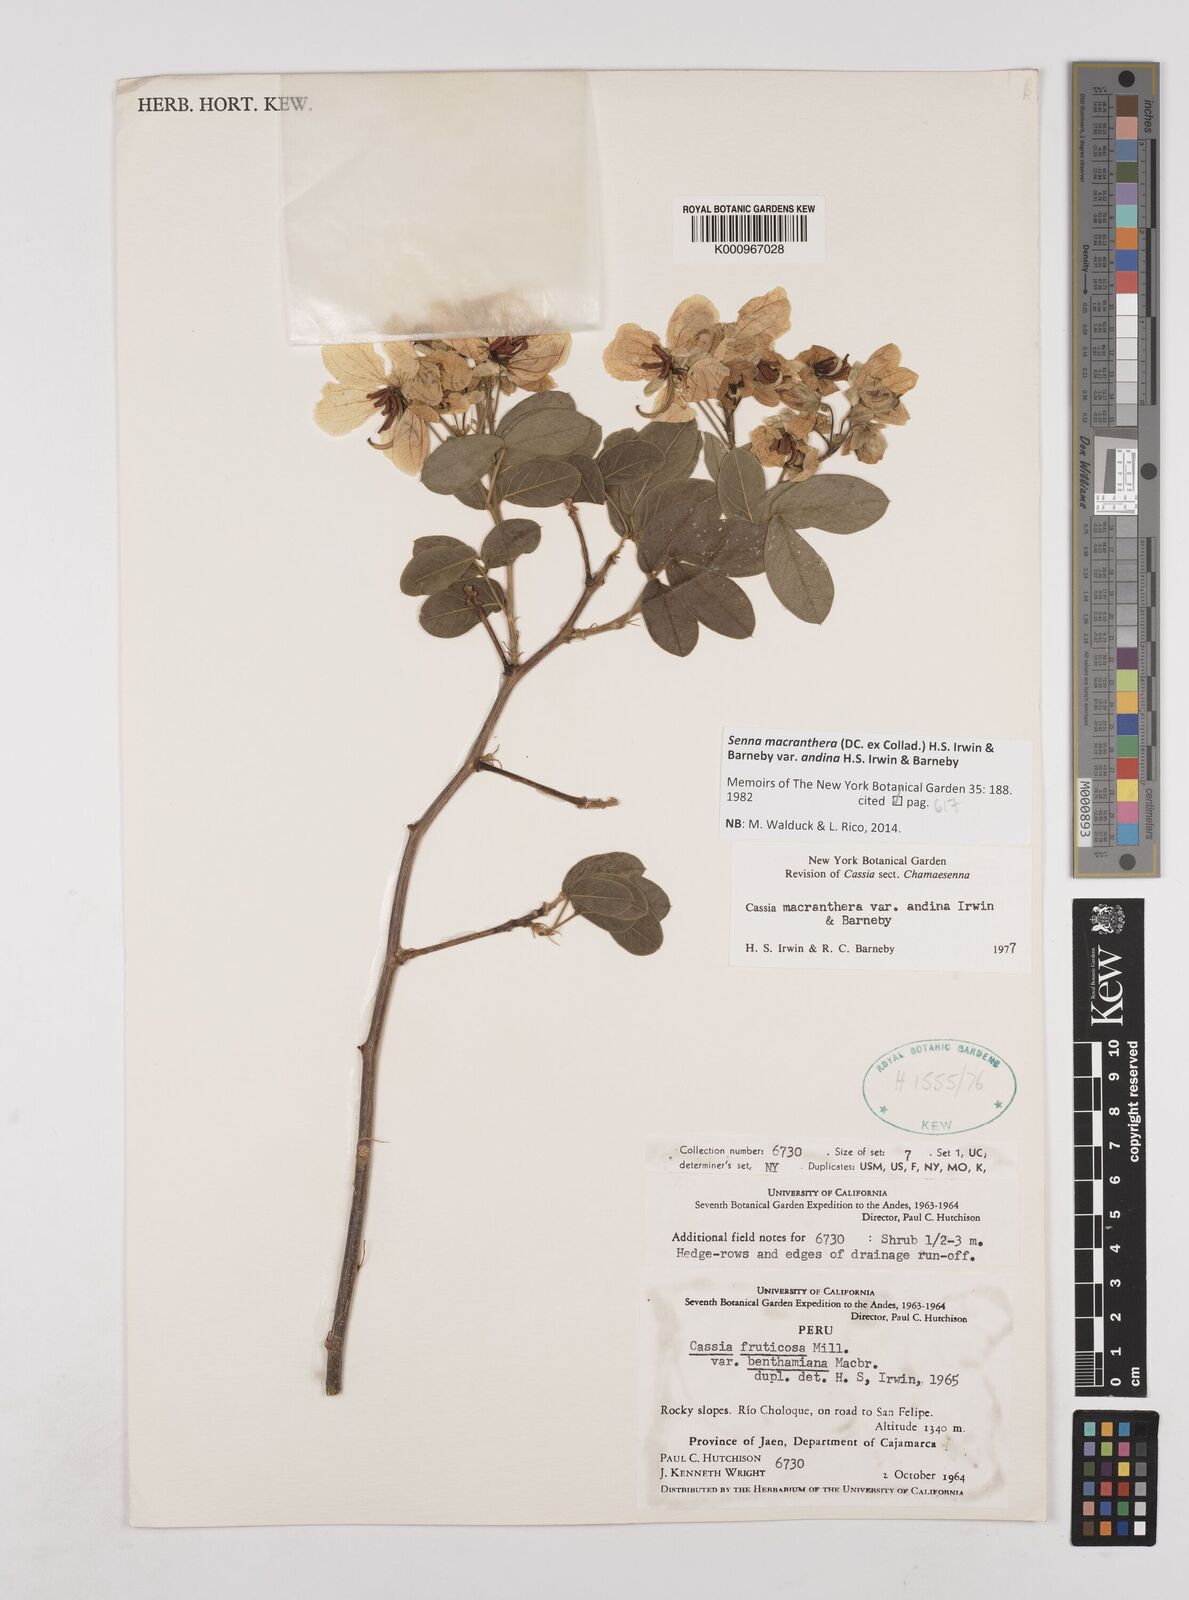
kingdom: Plantae
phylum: Tracheophyta
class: Magnoliopsida
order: Fabales
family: Fabaceae
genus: Senna
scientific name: Senna macranthera
